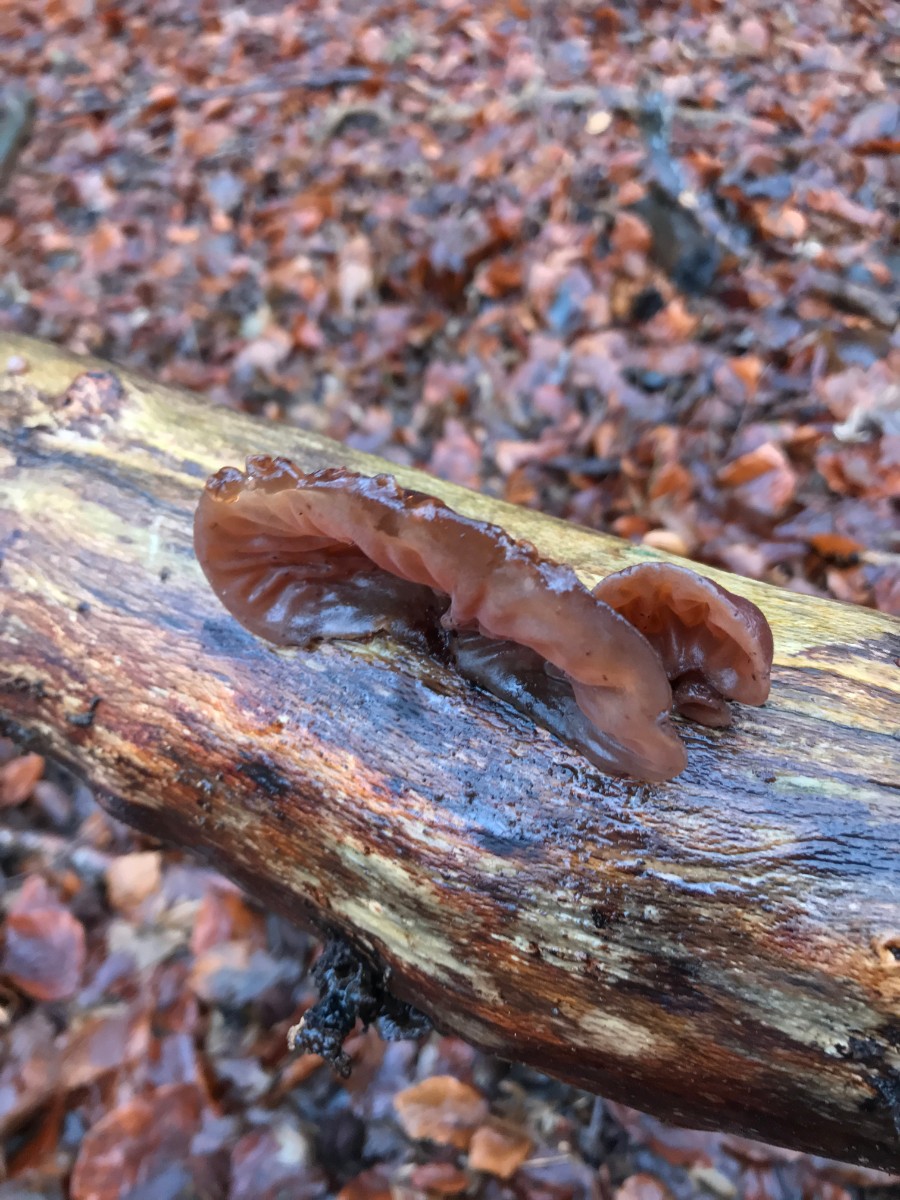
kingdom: Fungi
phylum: Basidiomycota
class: Agaricomycetes
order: Auriculariales
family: Auriculariaceae
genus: Auricularia
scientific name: Auricularia auricula-judae
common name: almindelig judasøre
